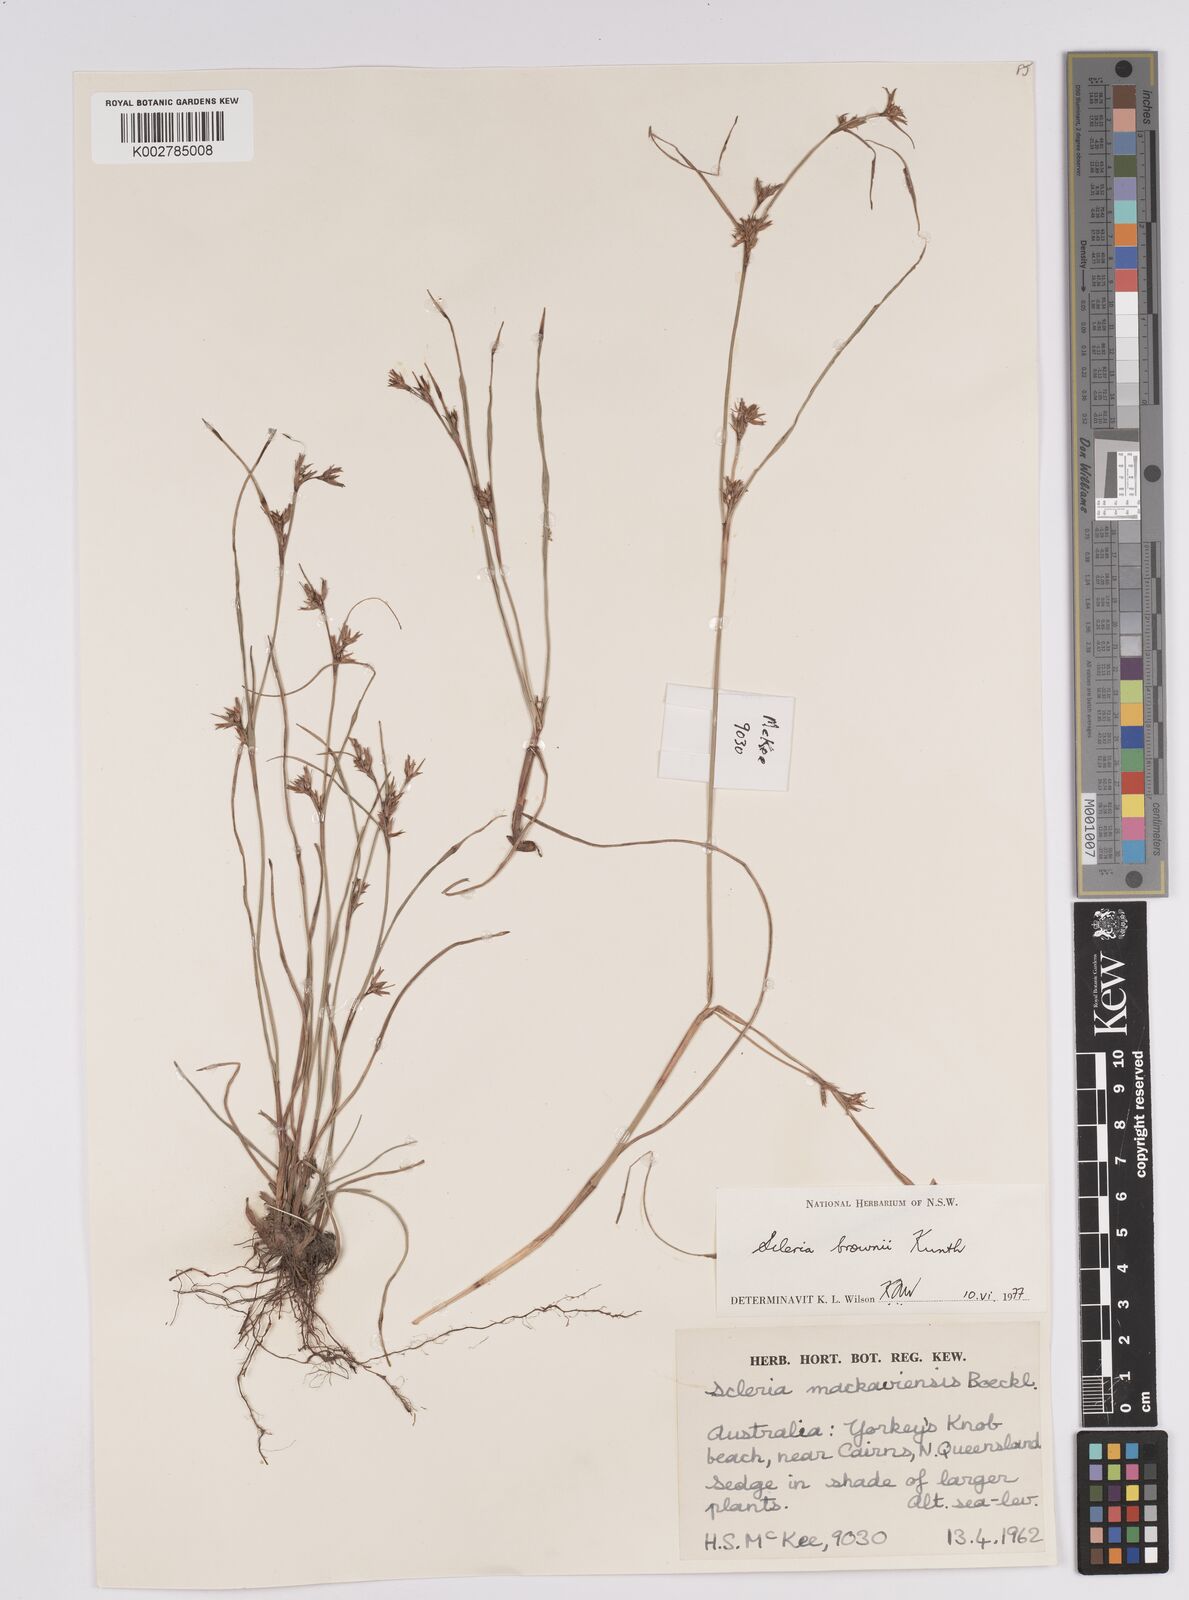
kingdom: Plantae
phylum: Tracheophyta
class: Liliopsida
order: Poales
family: Cyperaceae
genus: Scleria
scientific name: Scleria brownii
